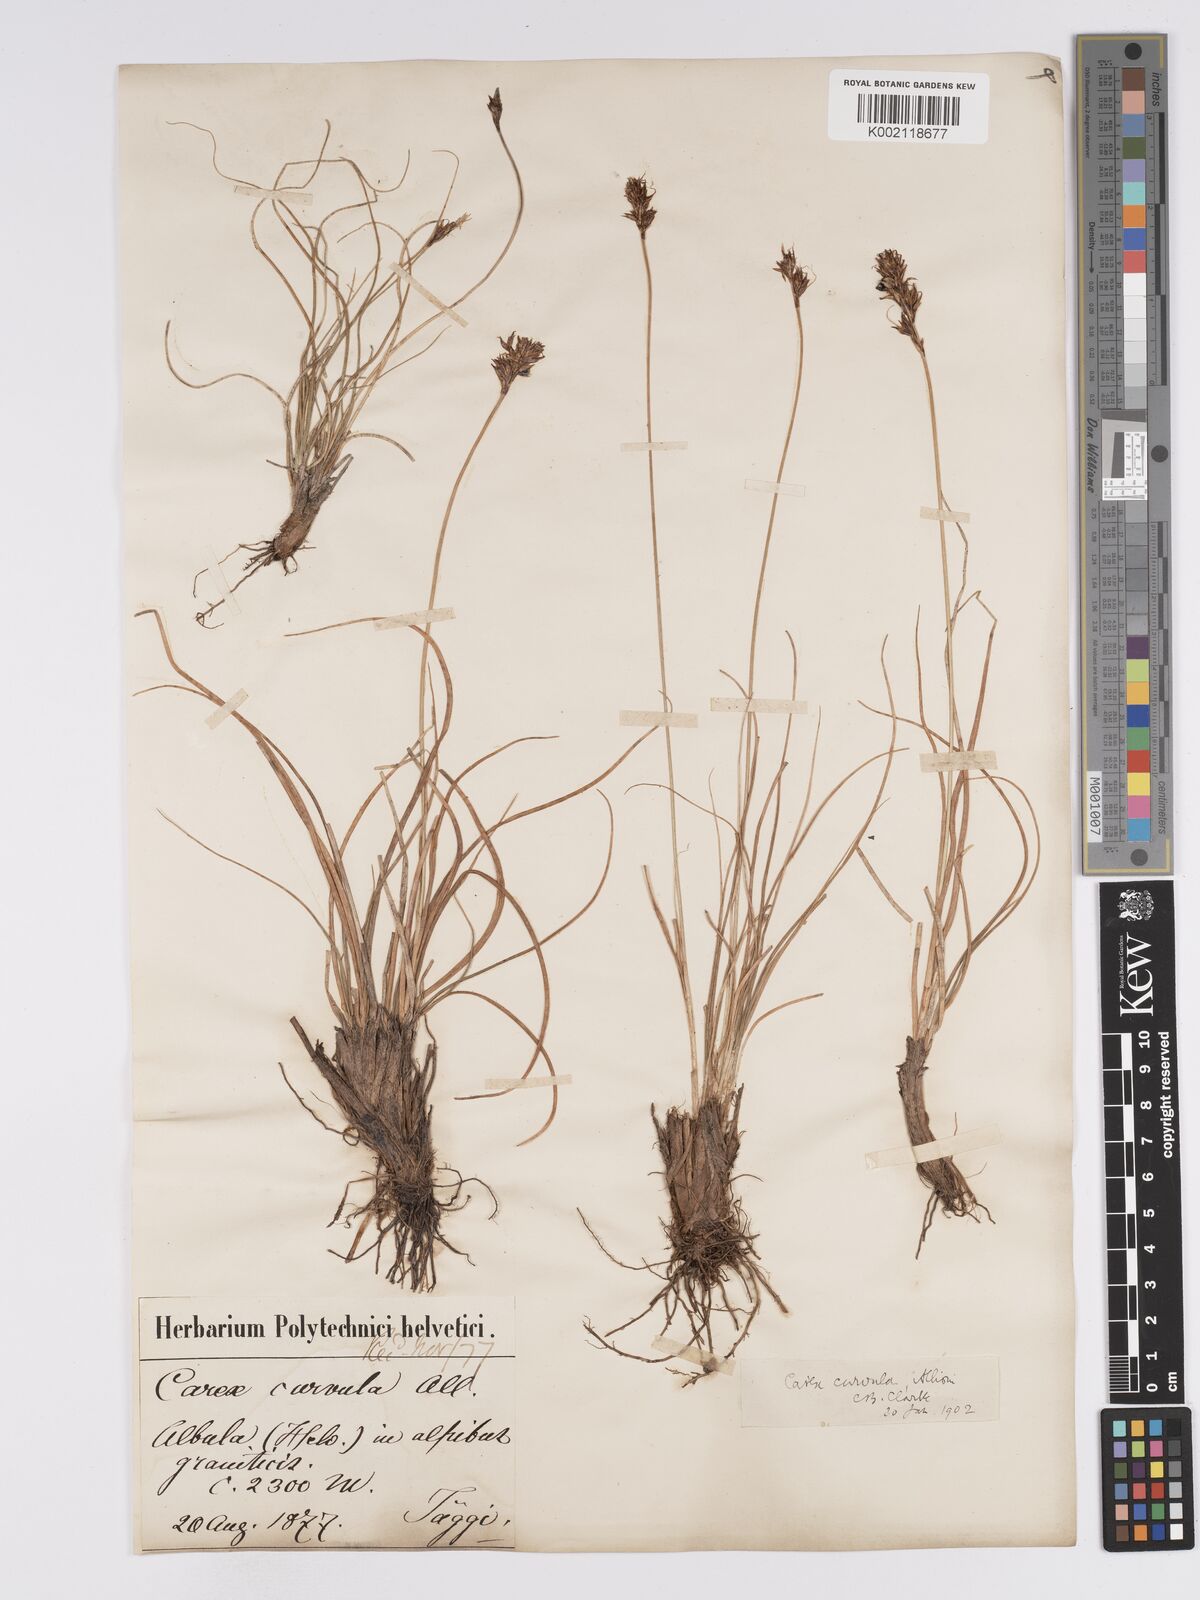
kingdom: Plantae
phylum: Tracheophyta
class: Liliopsida
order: Poales
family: Cyperaceae
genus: Carex
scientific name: Carex curvula
